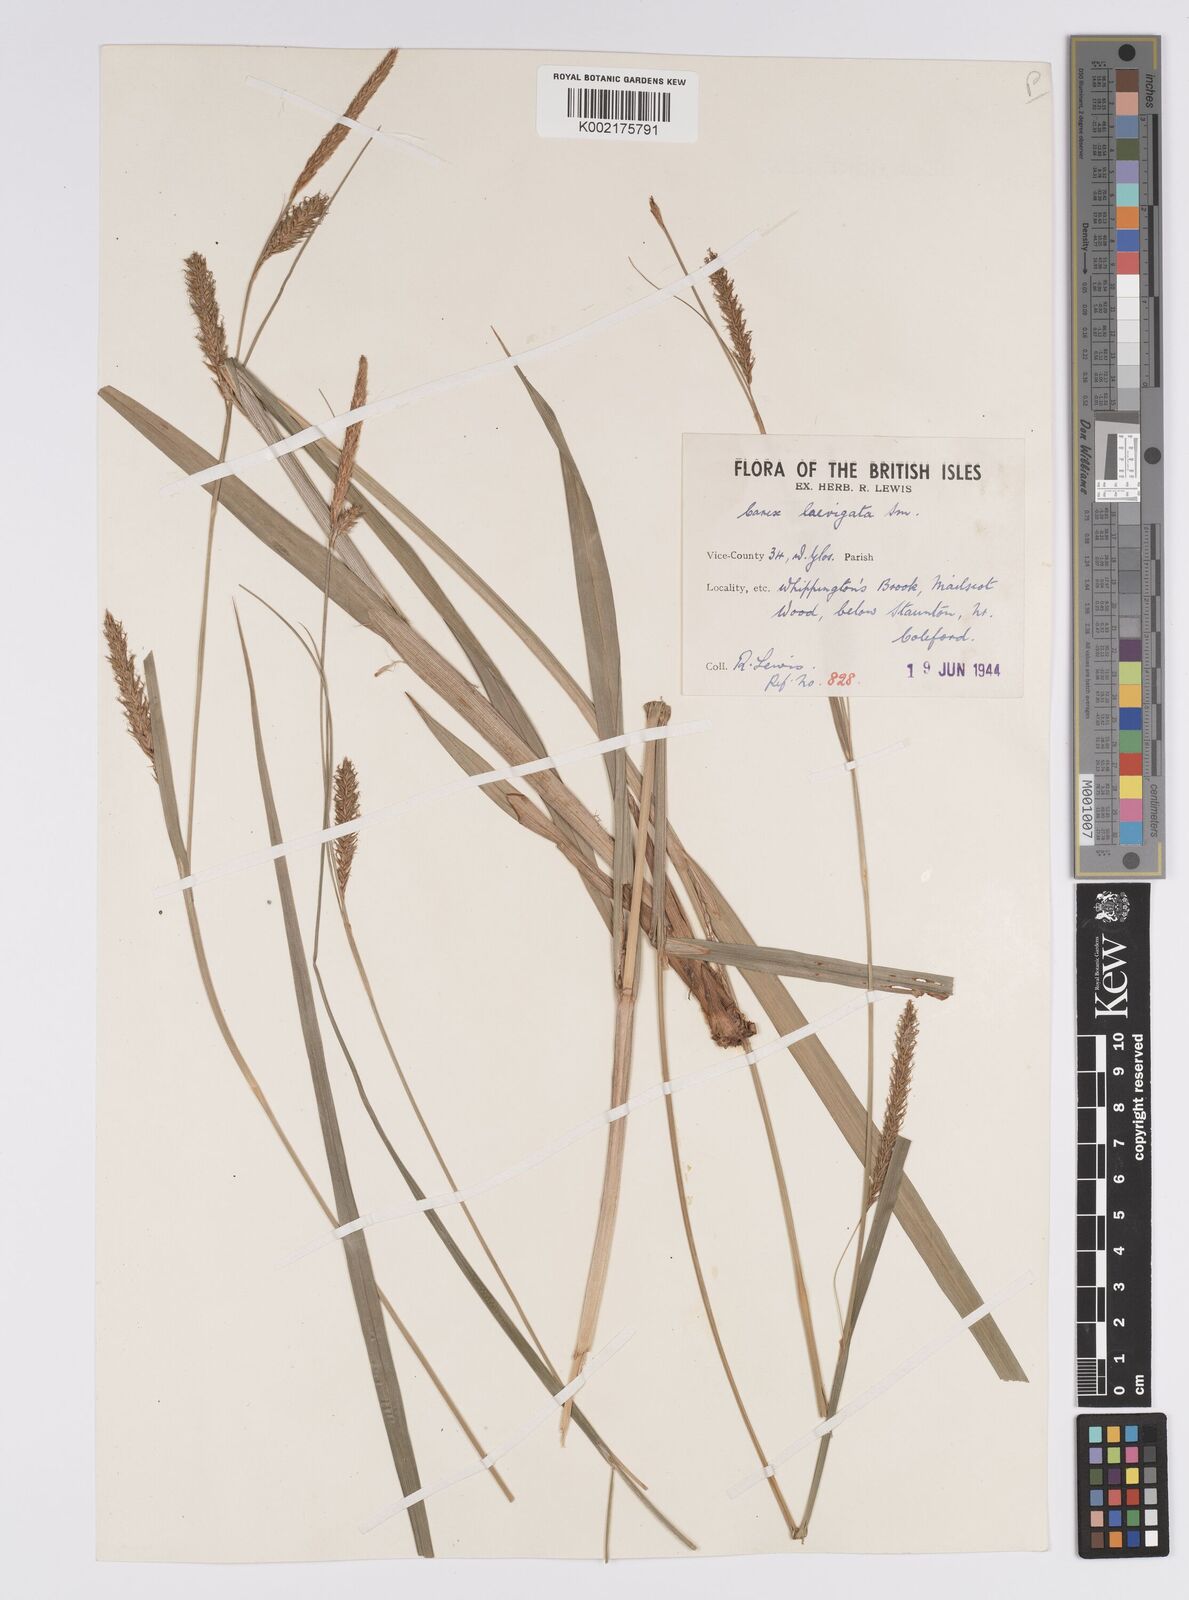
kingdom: Plantae
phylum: Tracheophyta
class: Liliopsida
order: Poales
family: Cyperaceae
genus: Carex
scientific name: Carex laevigata
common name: Smooth-stalked sedge
